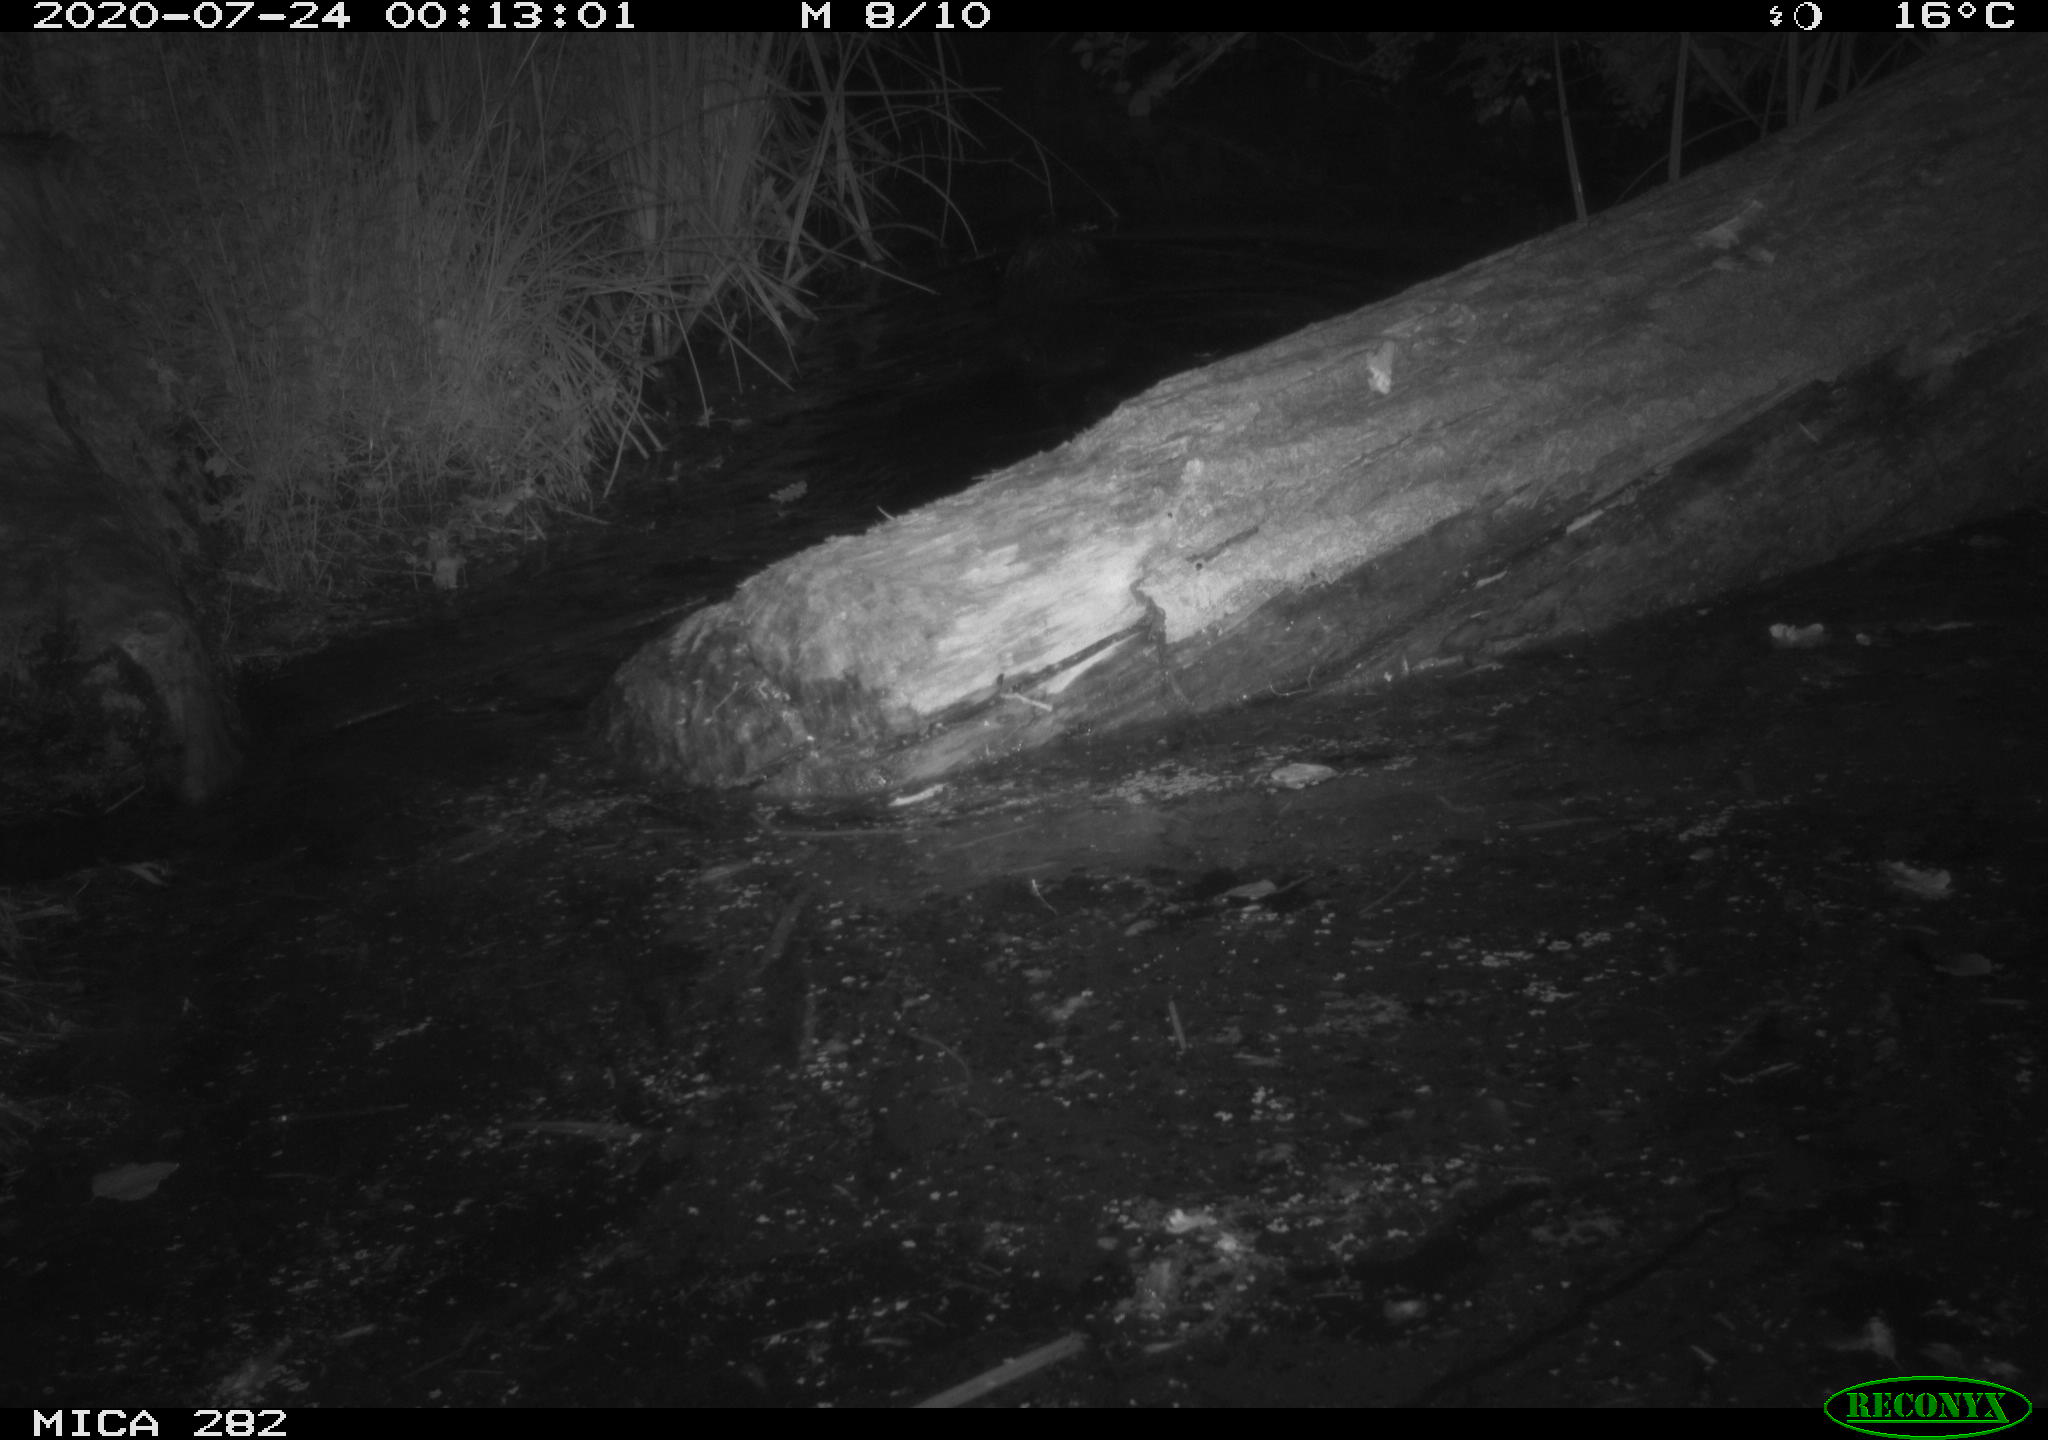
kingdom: Animalia
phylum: Chordata
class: Mammalia
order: Rodentia
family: Castoridae
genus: Castor
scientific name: Castor fiber
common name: Eurasian beaver
